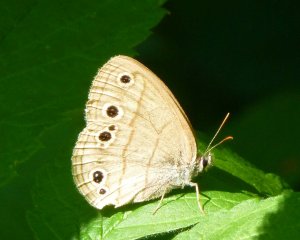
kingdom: Animalia
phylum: Arthropoda
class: Insecta
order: Lepidoptera
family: Nymphalidae
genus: Euptychia
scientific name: Euptychia cymela
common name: Little Wood Satyr
